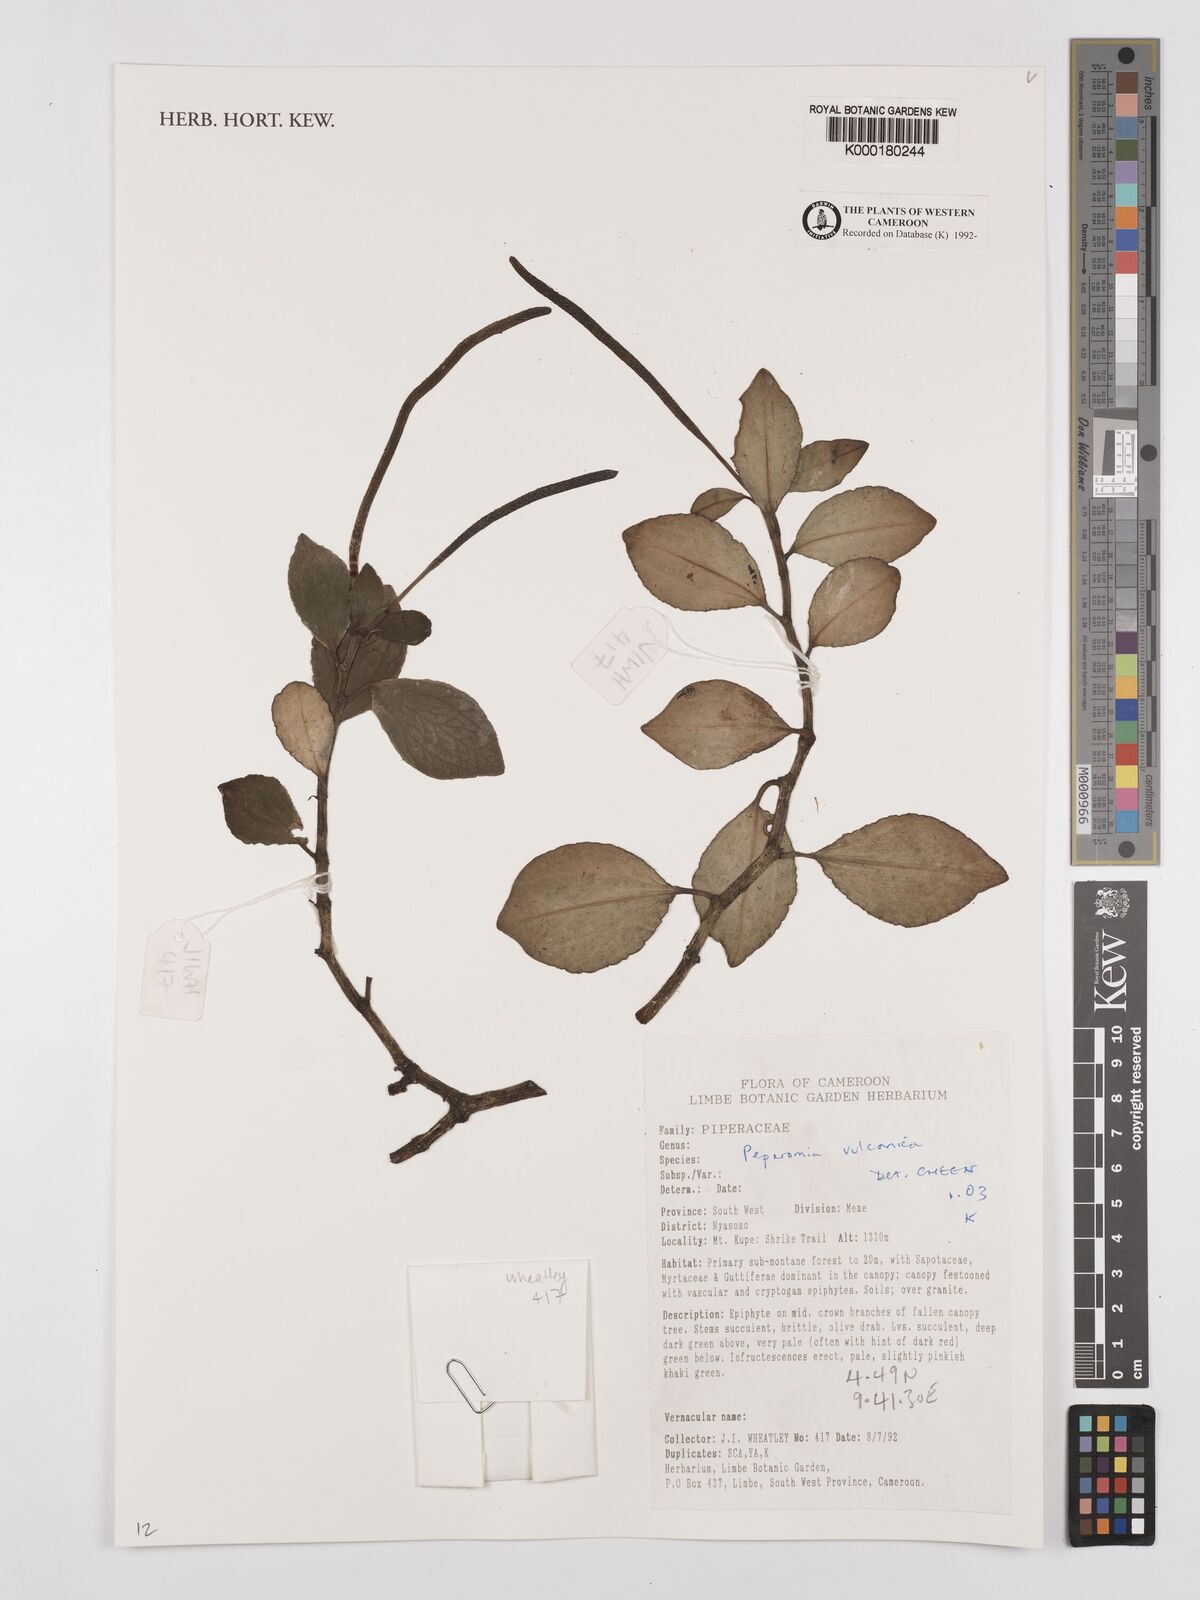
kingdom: Plantae
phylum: Tracheophyta
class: Magnoliopsida
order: Piperales
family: Piperaceae
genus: Peperomia
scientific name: Peperomia vulcanica
